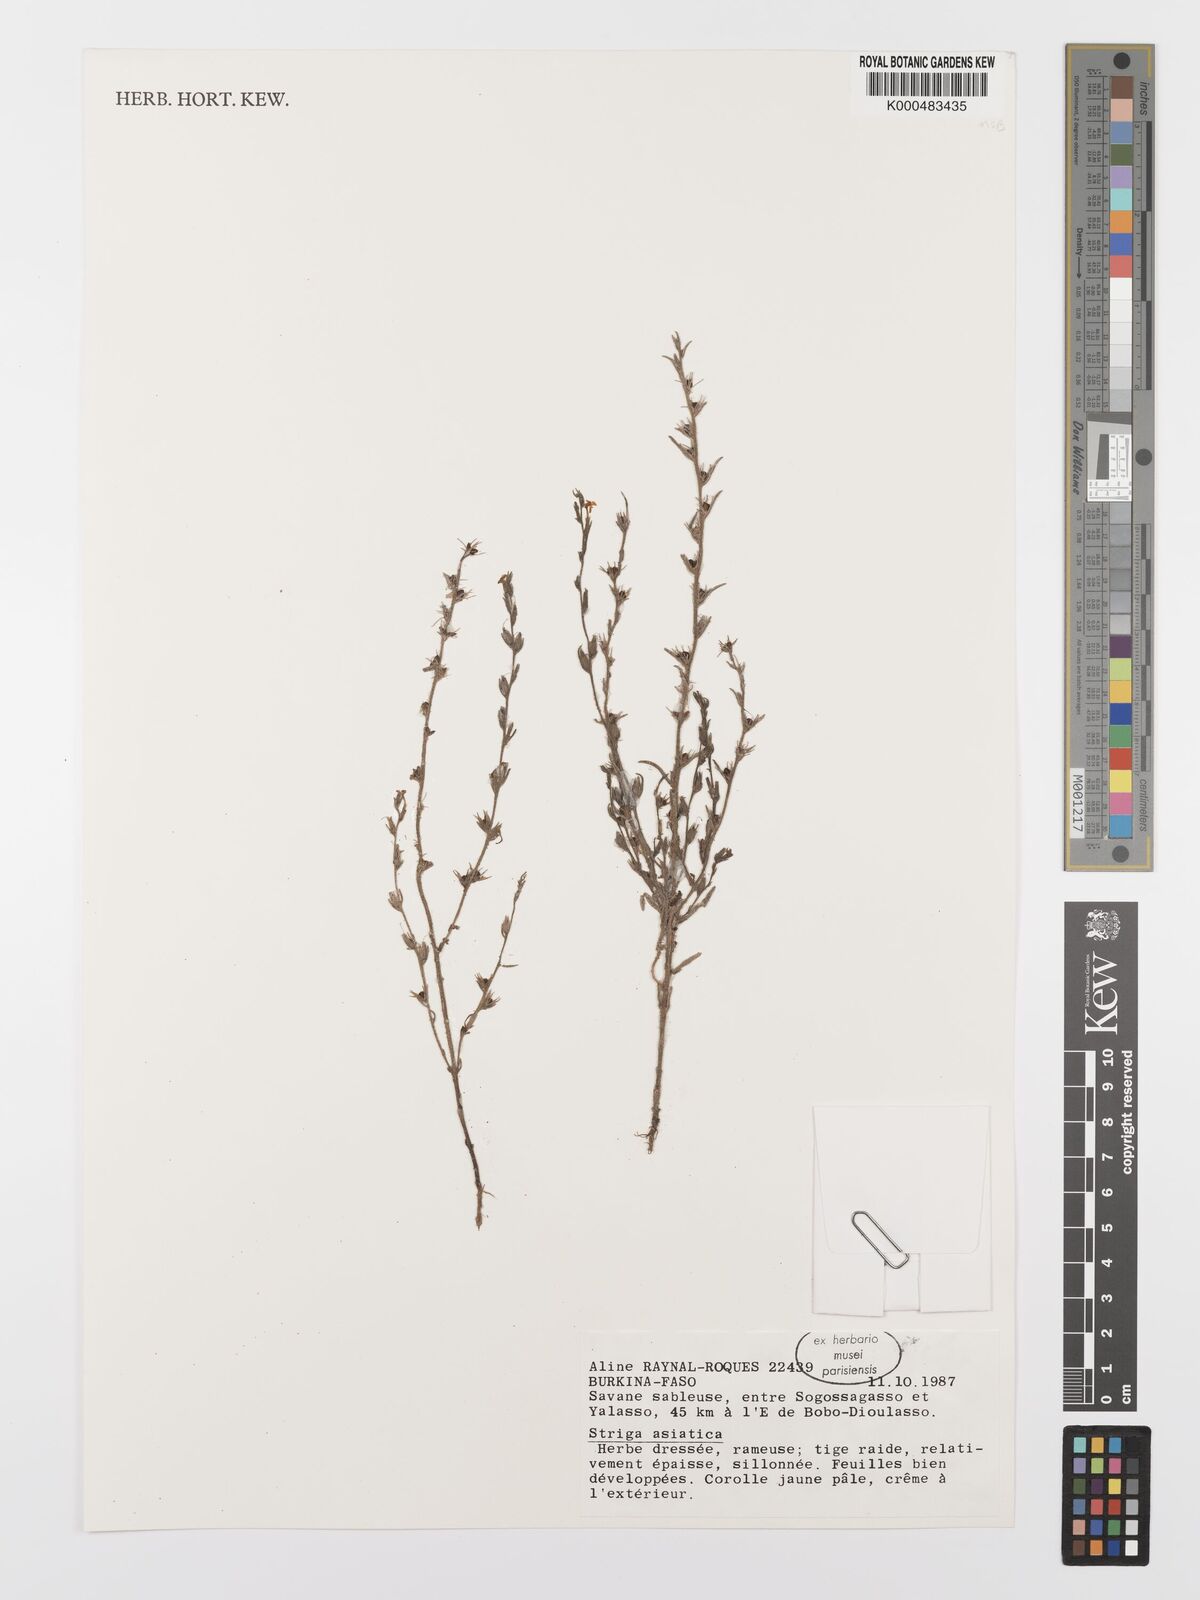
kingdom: Plantae
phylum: Tracheophyta
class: Magnoliopsida
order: Lamiales
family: Orobanchaceae
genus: Striga
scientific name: Striga asiatica
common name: Asiatic witchweed
